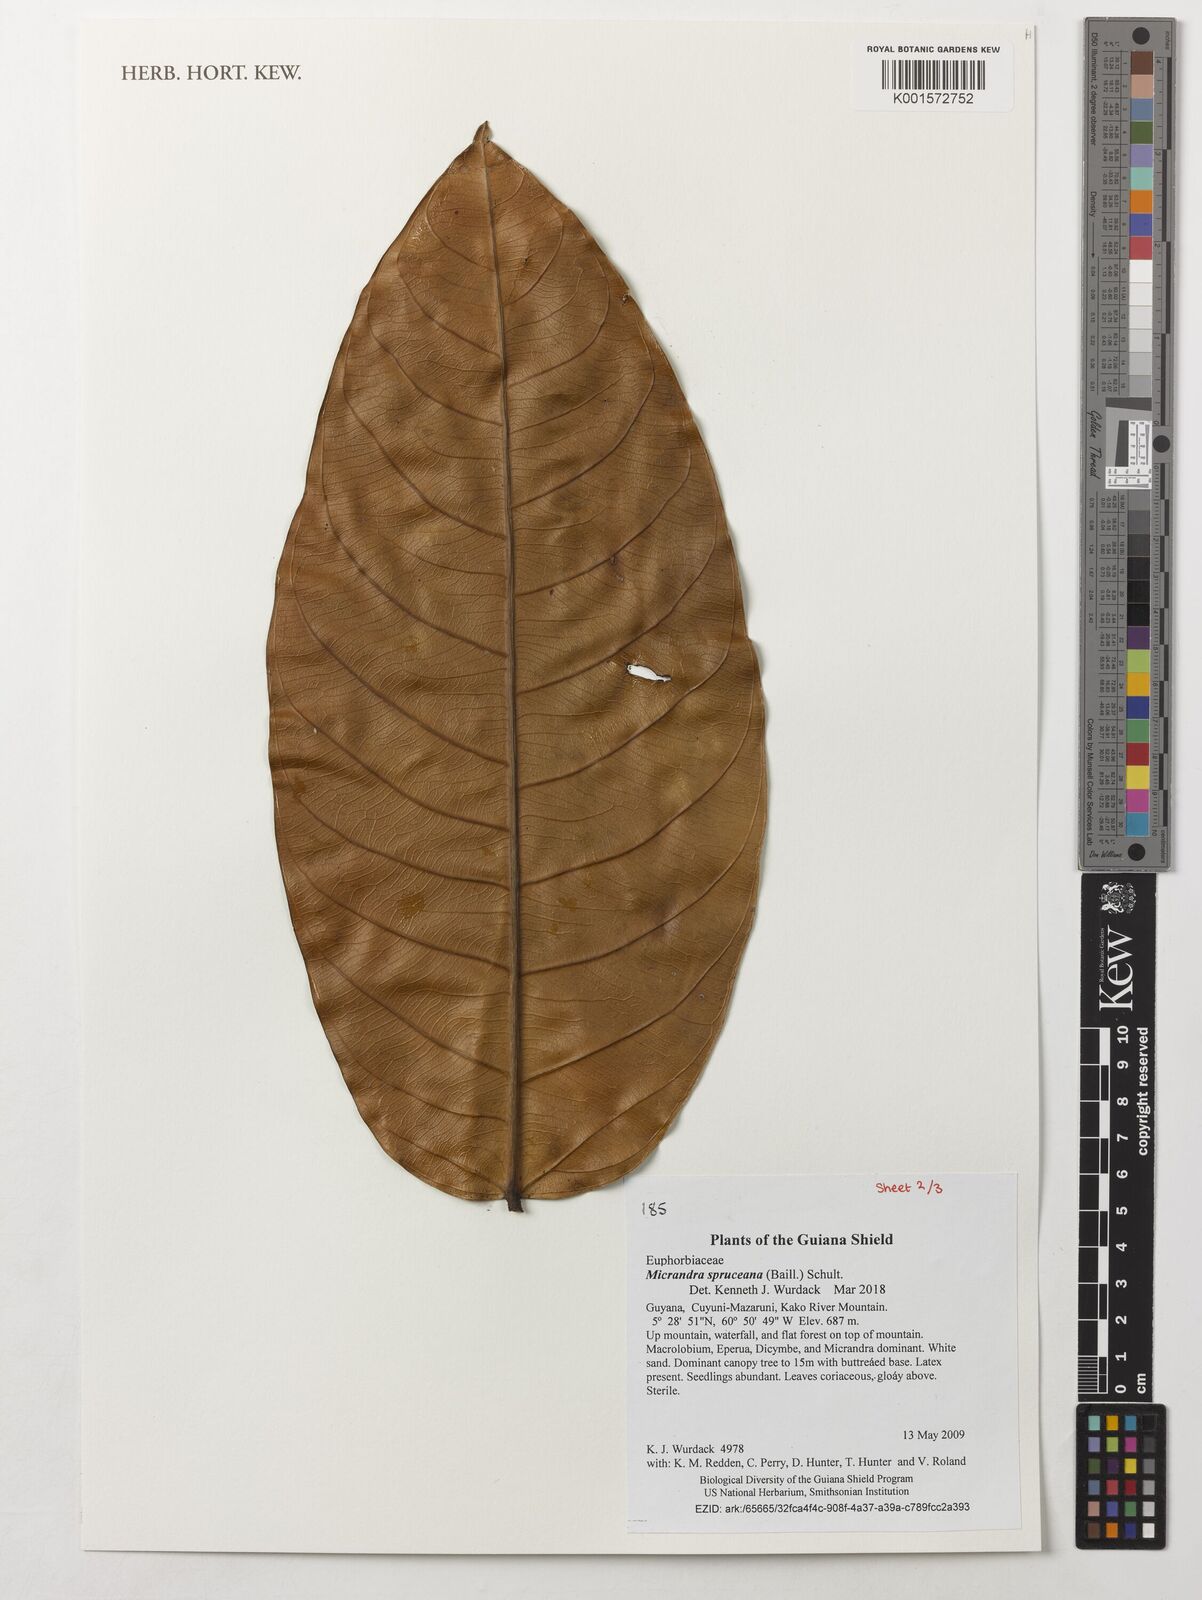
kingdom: Plantae
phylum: Tracheophyta
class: Magnoliopsida
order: Malpighiales
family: Euphorbiaceae
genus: Micrandra
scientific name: Micrandra spruceana
